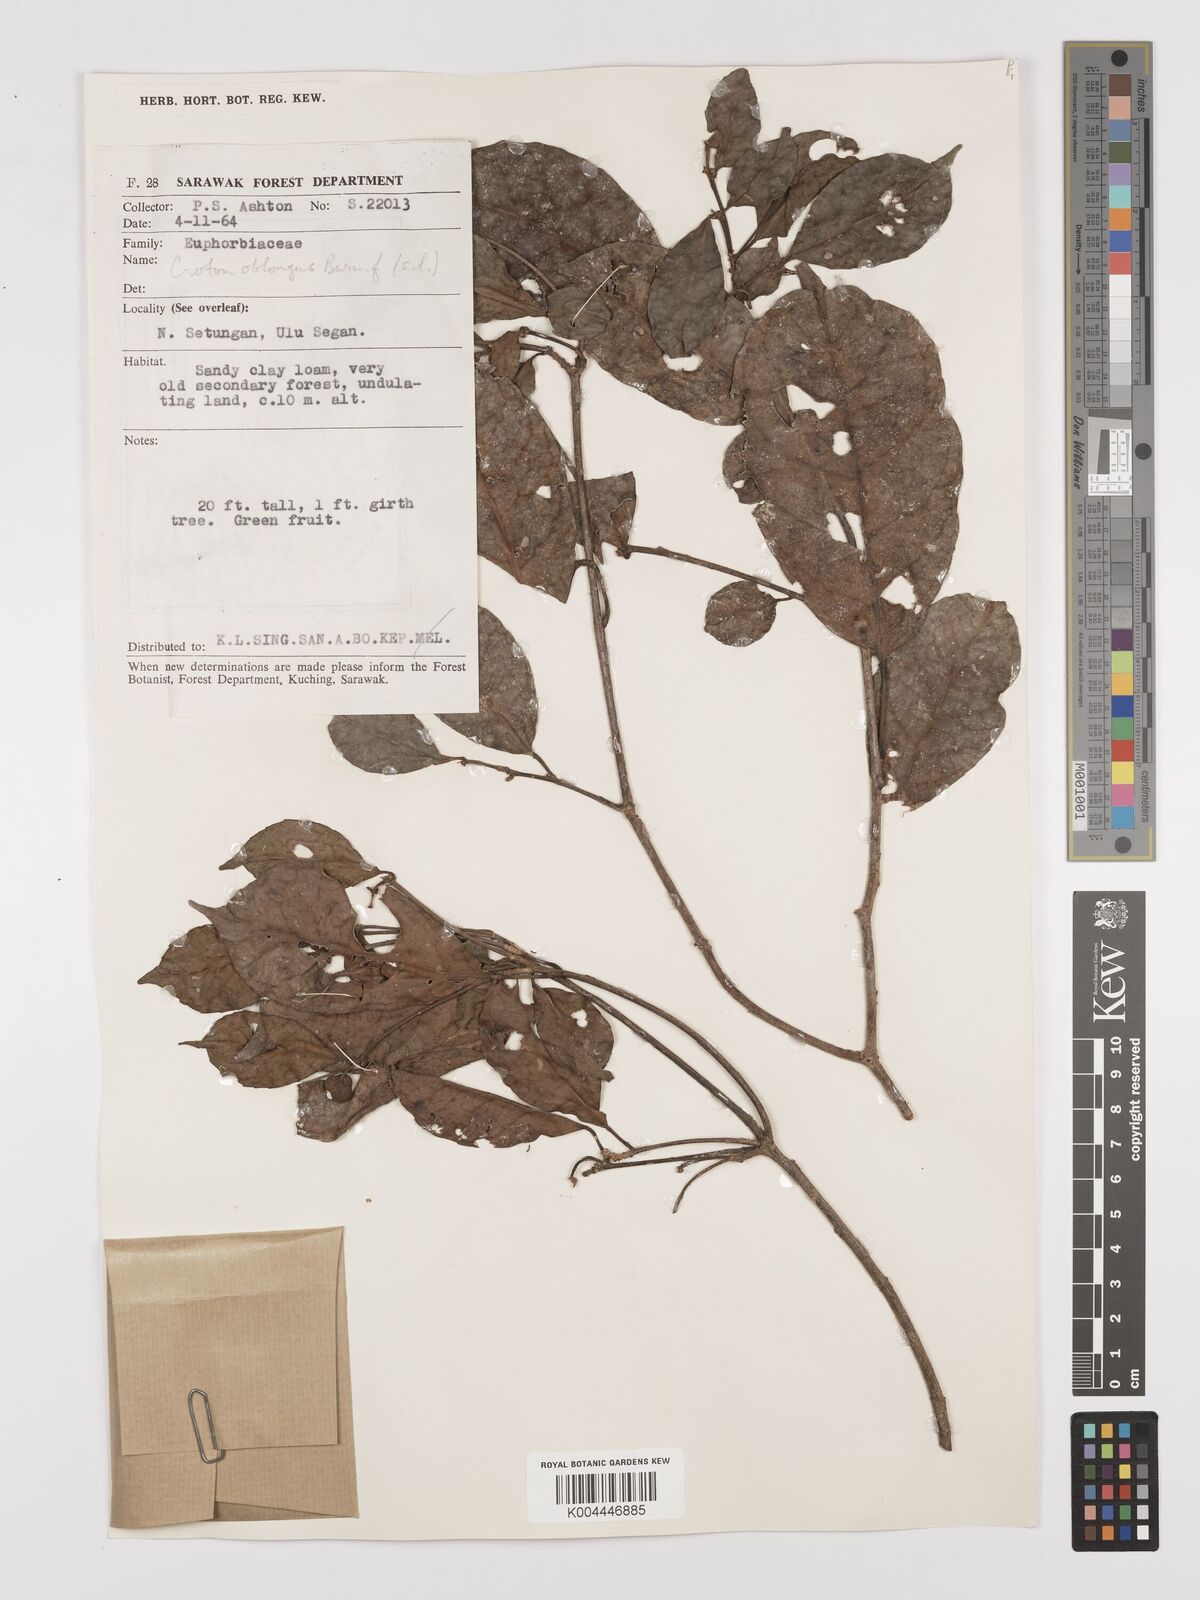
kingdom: Plantae
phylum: Tracheophyta
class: Magnoliopsida
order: Malpighiales
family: Euphorbiaceae
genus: Croton
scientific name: Croton oblongus
